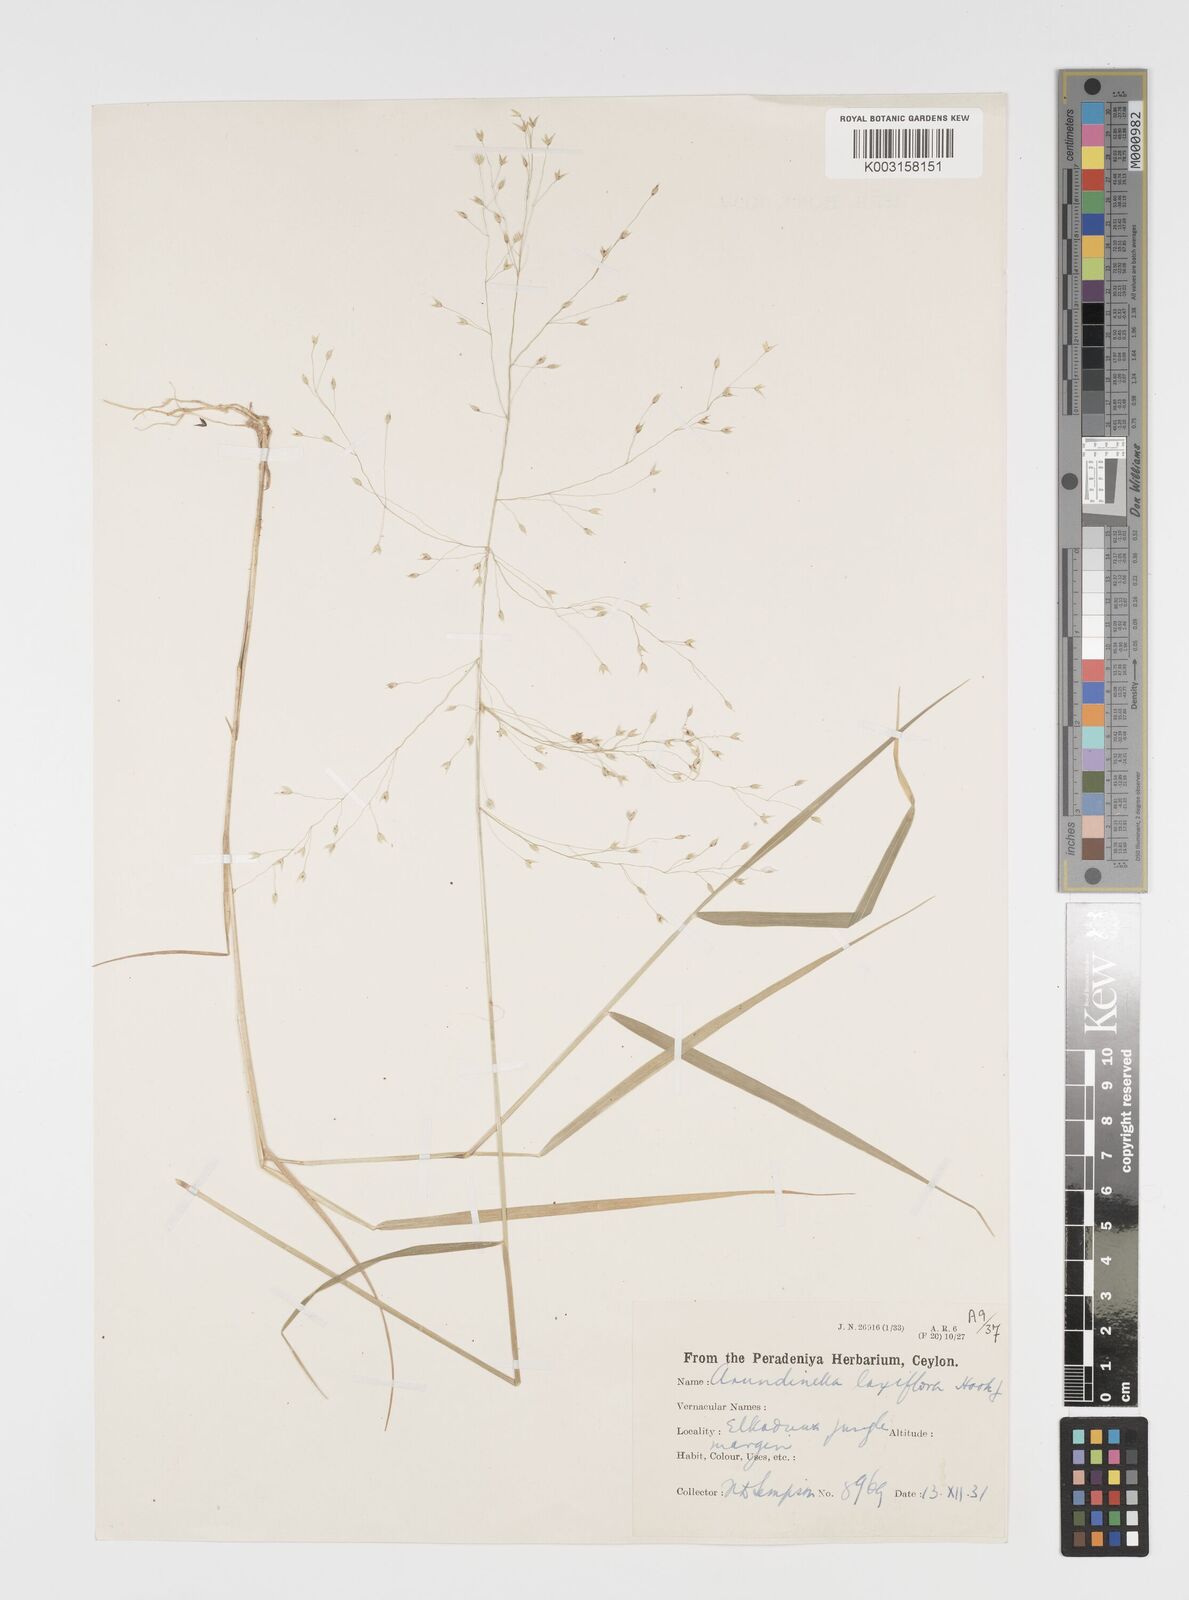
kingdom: Plantae
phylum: Tracheophyta
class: Liliopsida
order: Poales
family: Poaceae
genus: Arundinella
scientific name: Arundinella laxiflora
